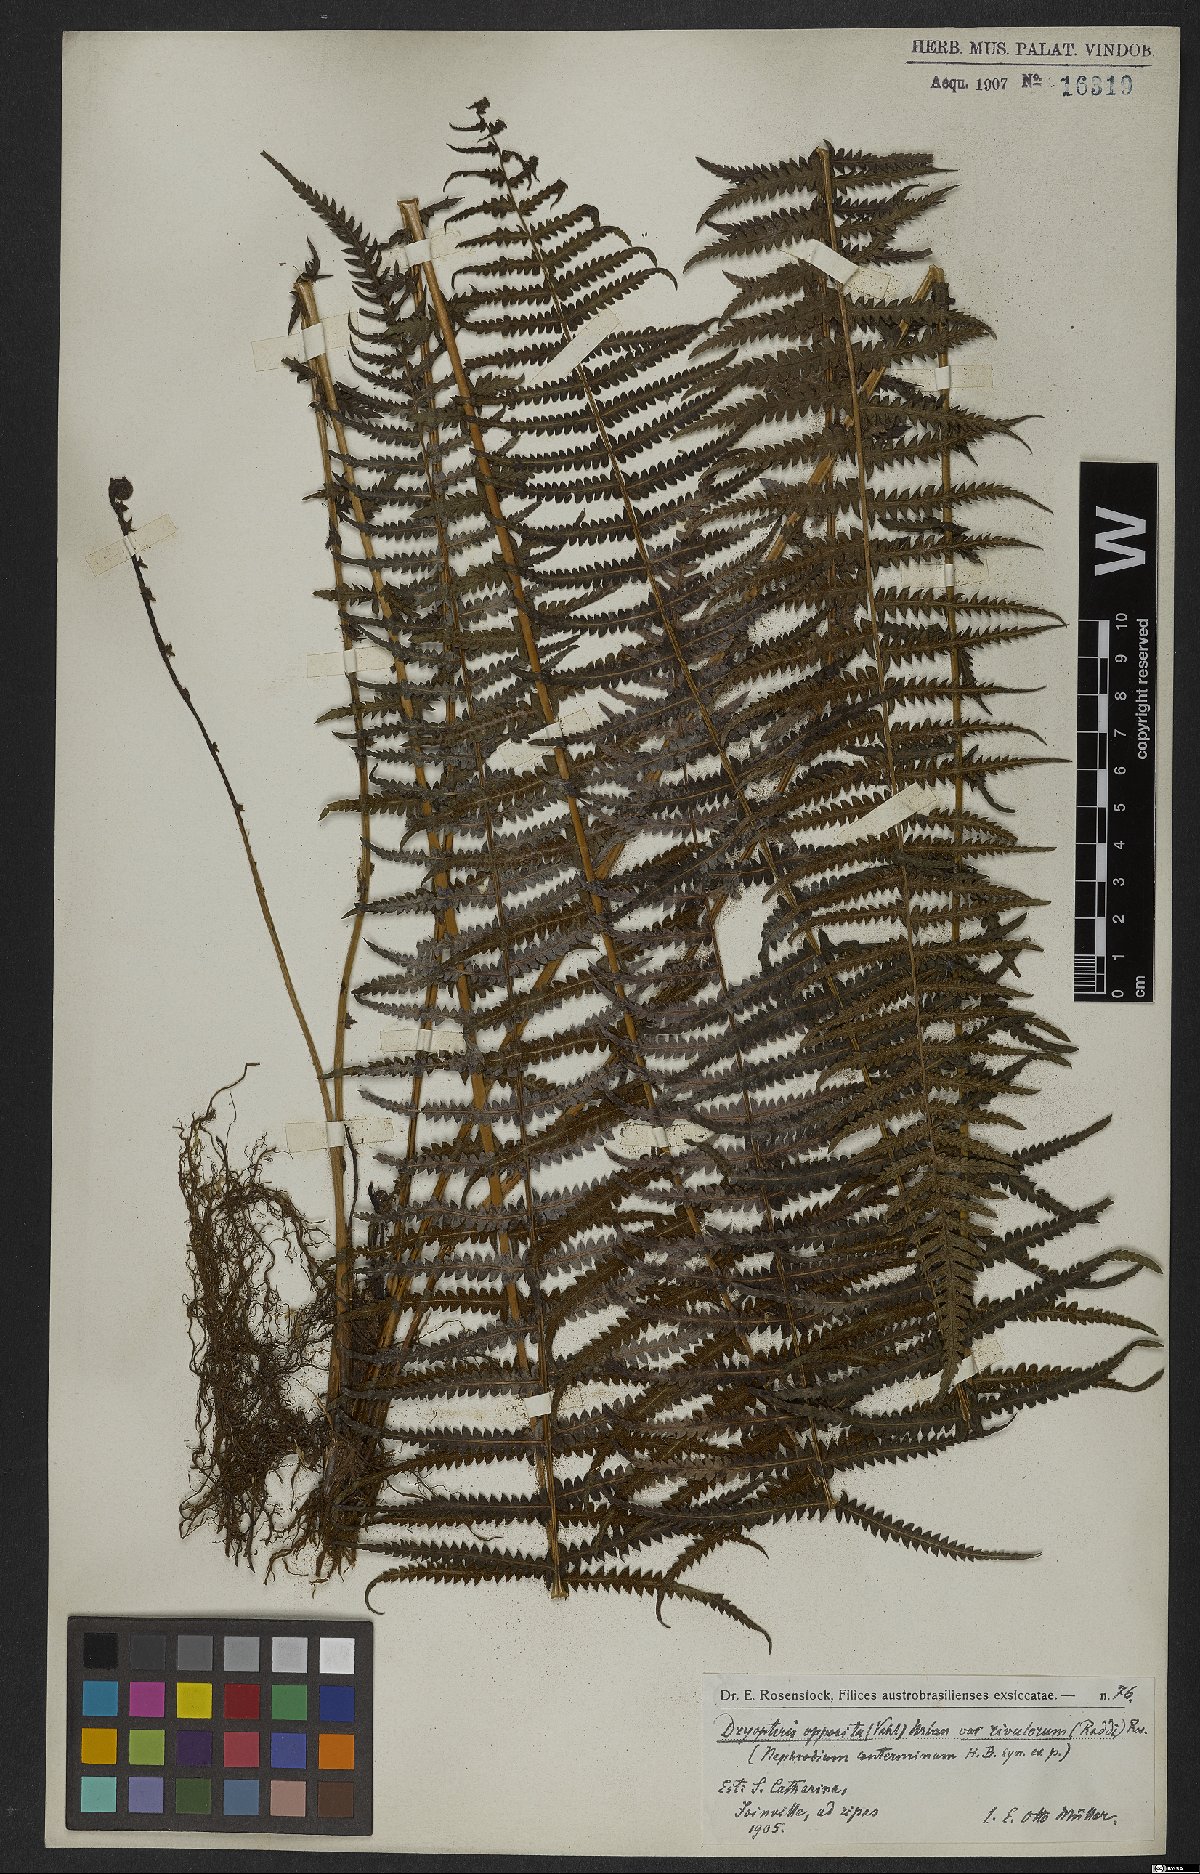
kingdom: Plantae
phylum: Tracheophyta
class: Polypodiopsida
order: Polypodiales
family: Thelypteridaceae
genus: Amauropelta
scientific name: Amauropelta opposita
